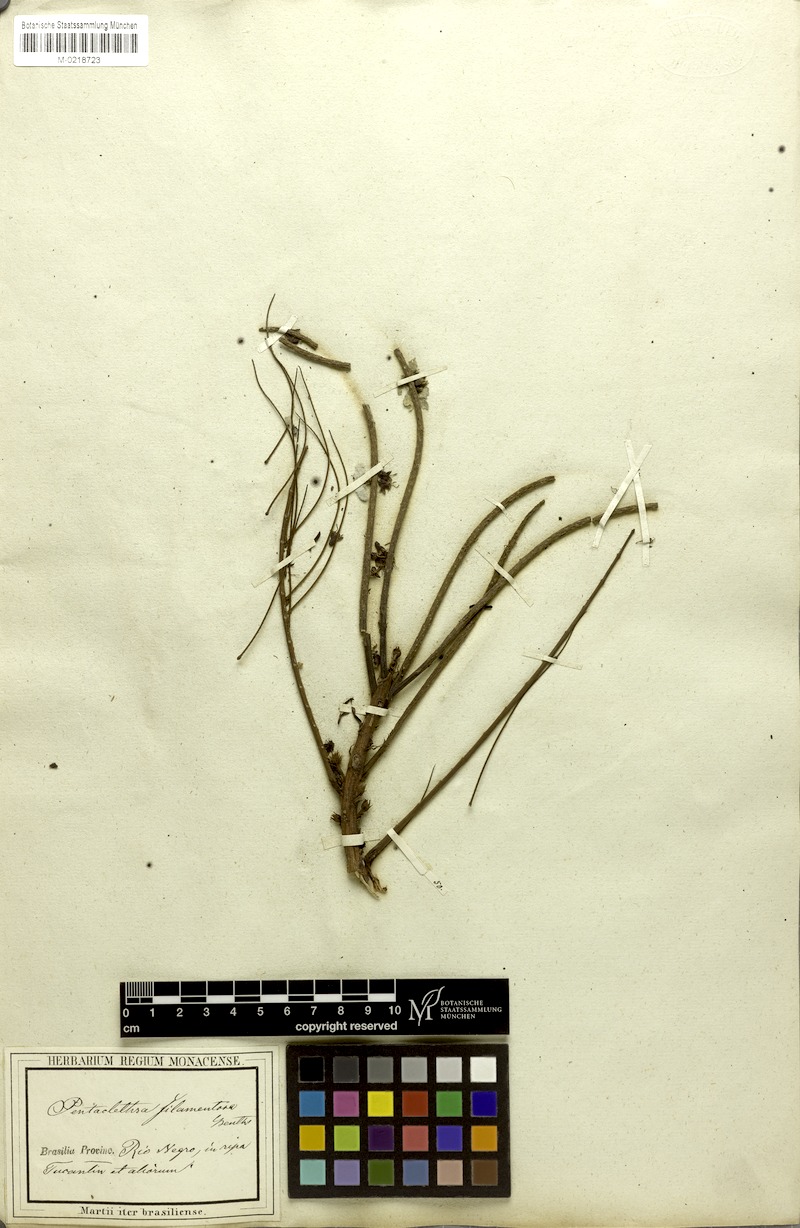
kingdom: Plantae
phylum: Tracheophyta
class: Magnoliopsida
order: Fabales
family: Fabaceae
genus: Pentaclethra
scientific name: Pentaclethra macroloba
